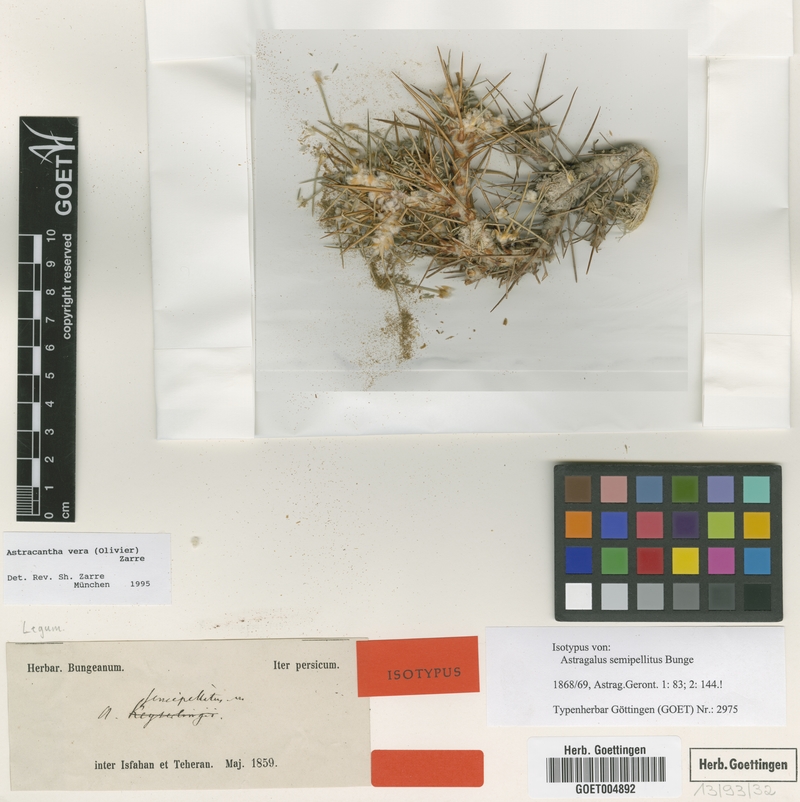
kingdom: Plantae
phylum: Tracheophyta
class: Magnoliopsida
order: Fabales
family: Fabaceae
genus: Astragalus
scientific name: Astragalus verus
